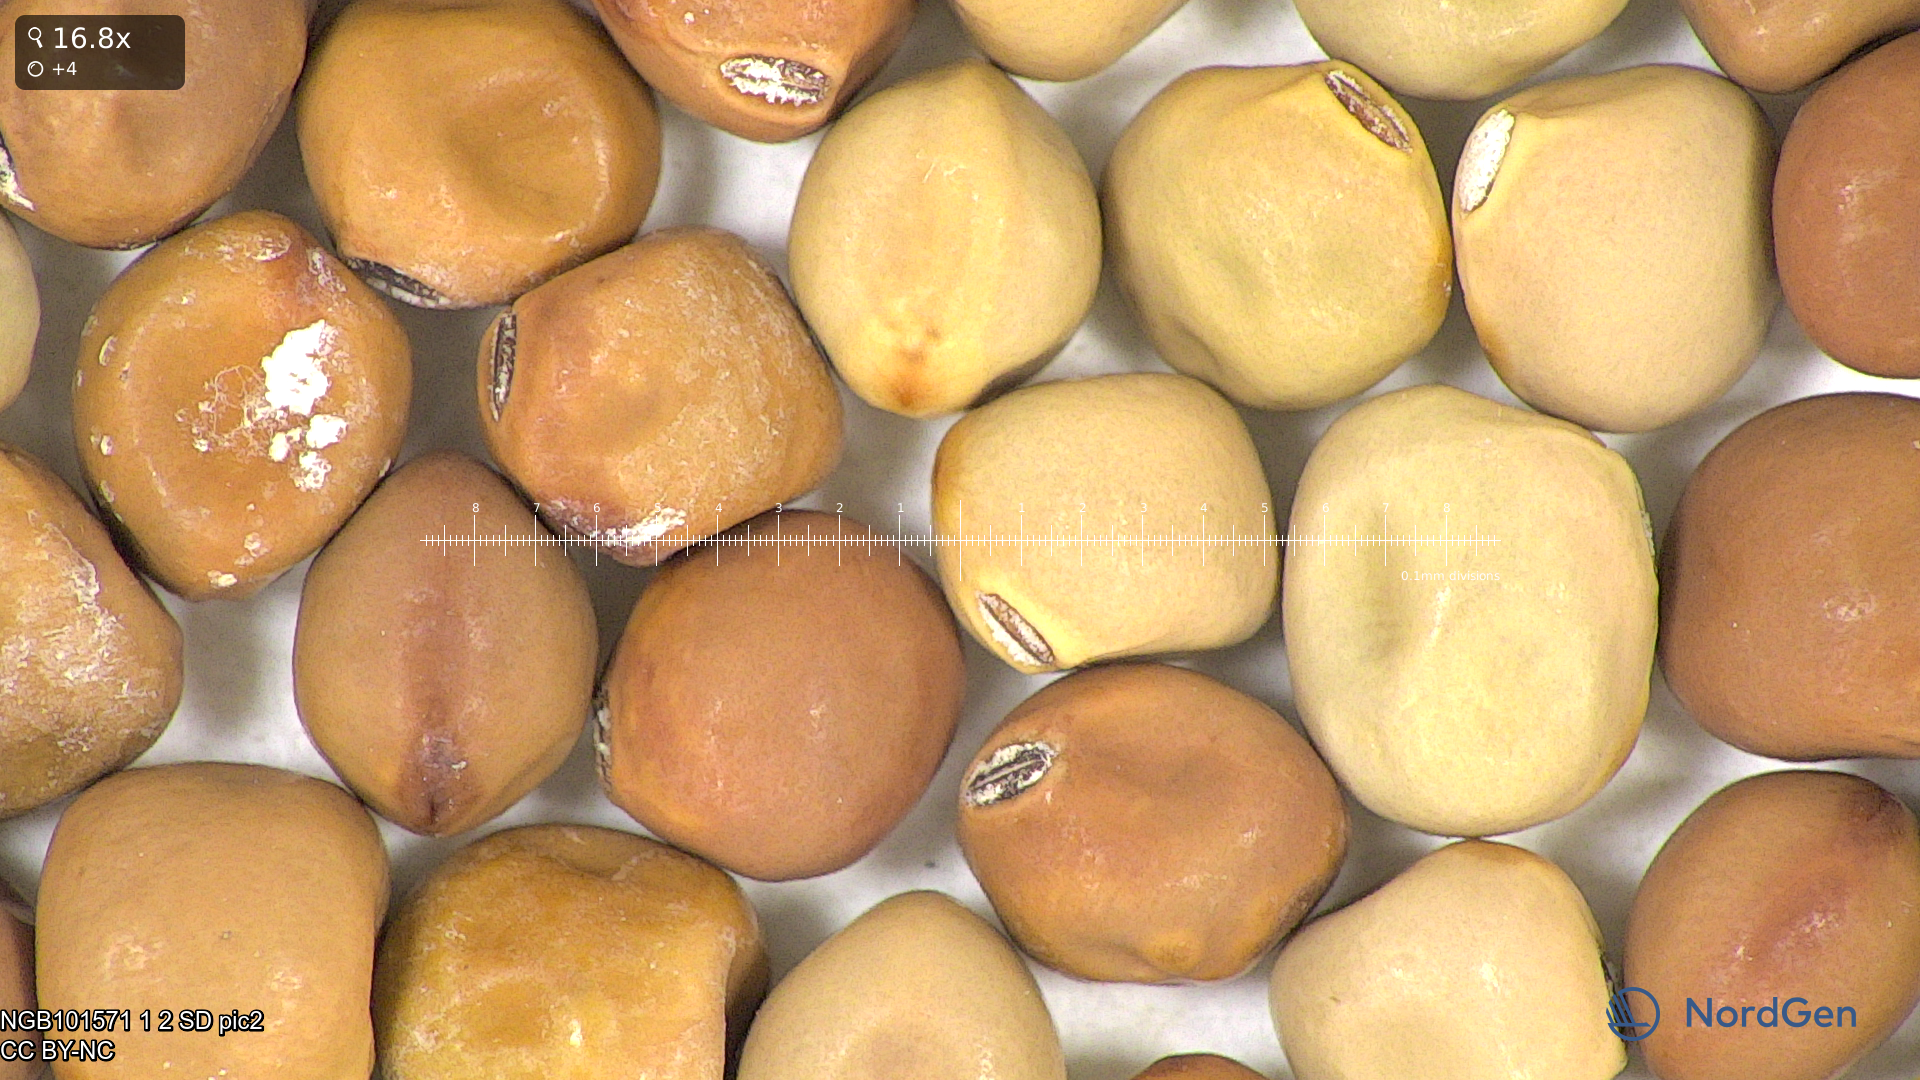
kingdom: Plantae
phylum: Tracheophyta
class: Magnoliopsida
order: Fabales
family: Fabaceae
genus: Lathyrus
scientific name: Lathyrus oleraceus
